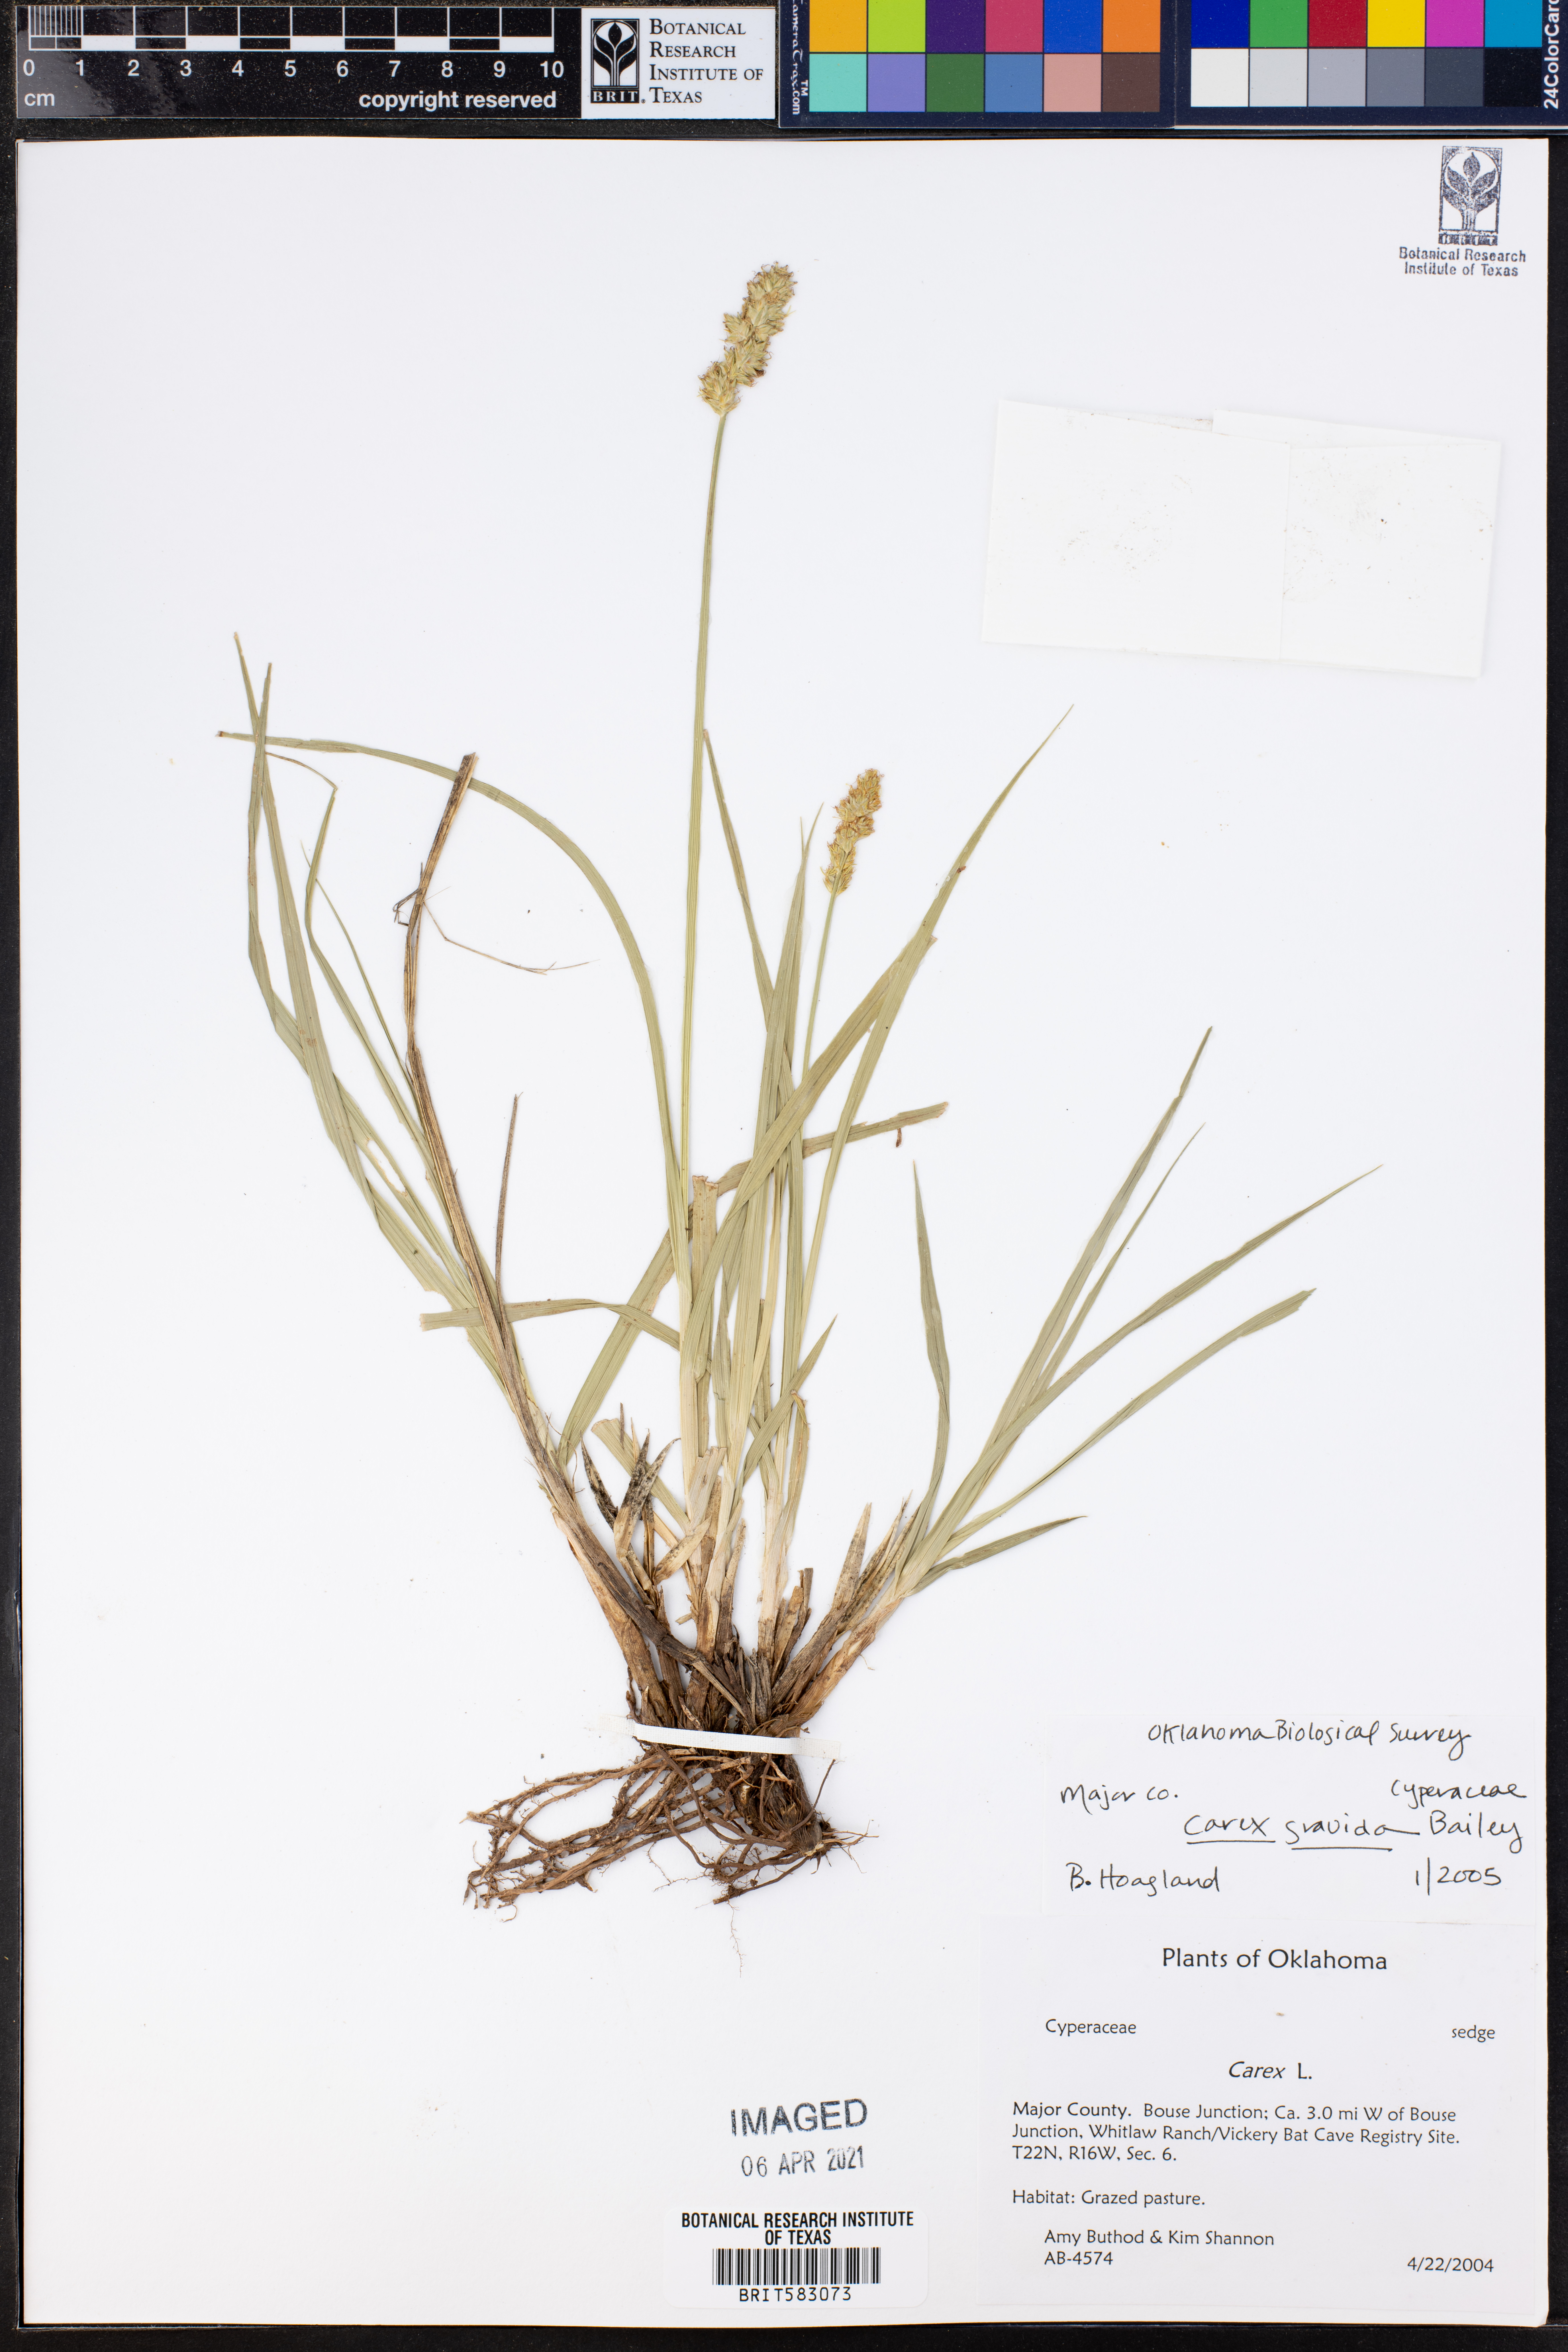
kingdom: Plantae
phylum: Tracheophyta
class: Liliopsida
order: Poales
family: Cyperaceae
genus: Carex
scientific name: Carex gravida
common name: Heavy sedge
